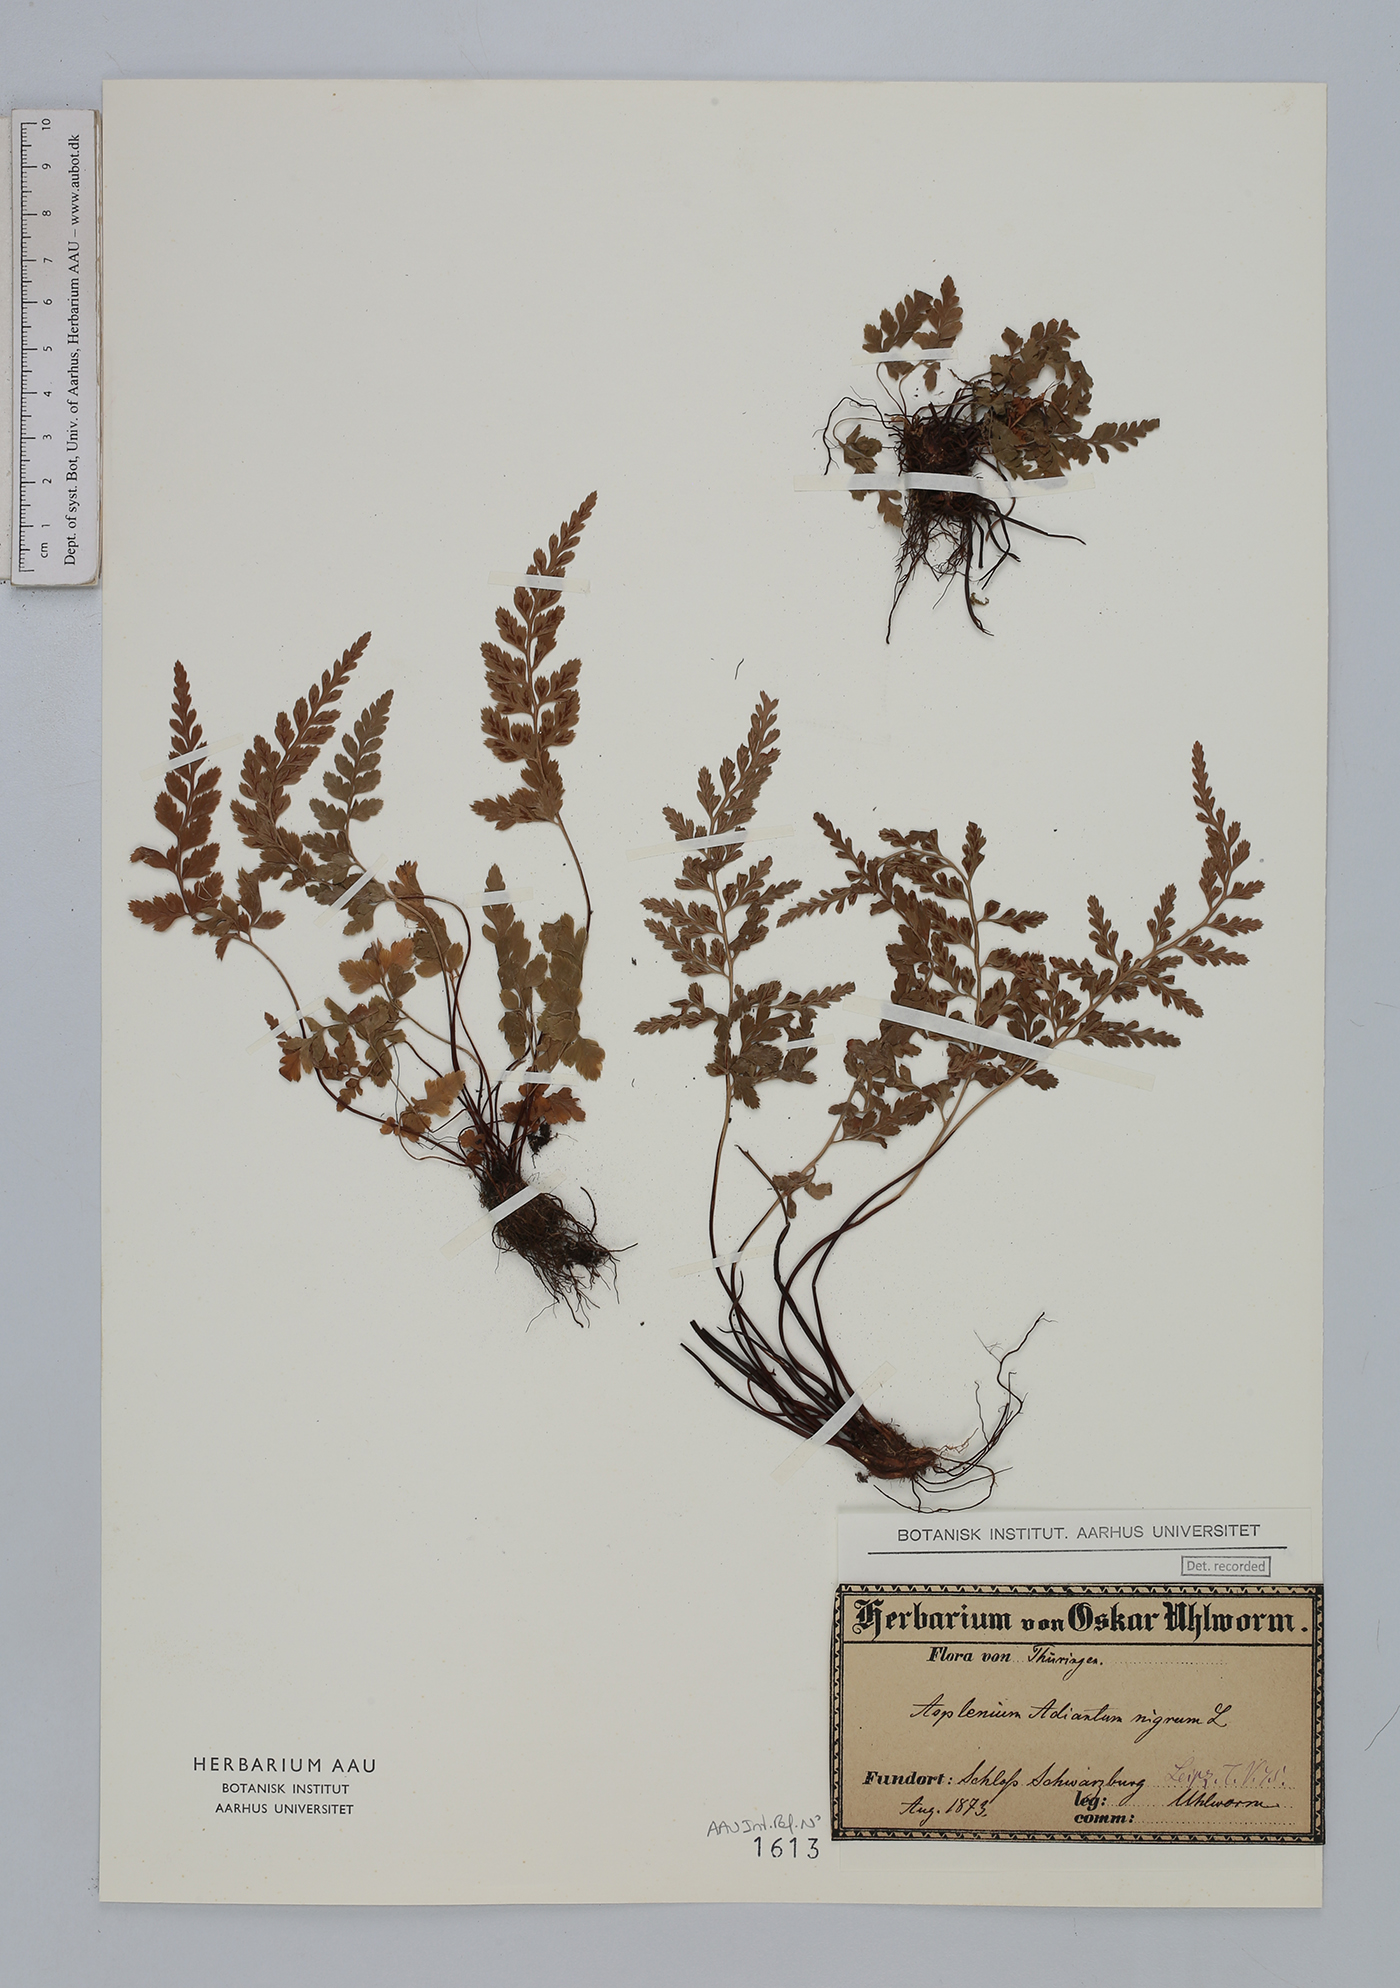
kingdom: Plantae
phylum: Tracheophyta
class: Polypodiopsida
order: Polypodiales
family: Aspleniaceae
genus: Asplenium
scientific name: Asplenium adiantum-nigrum
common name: Black spleenwort
